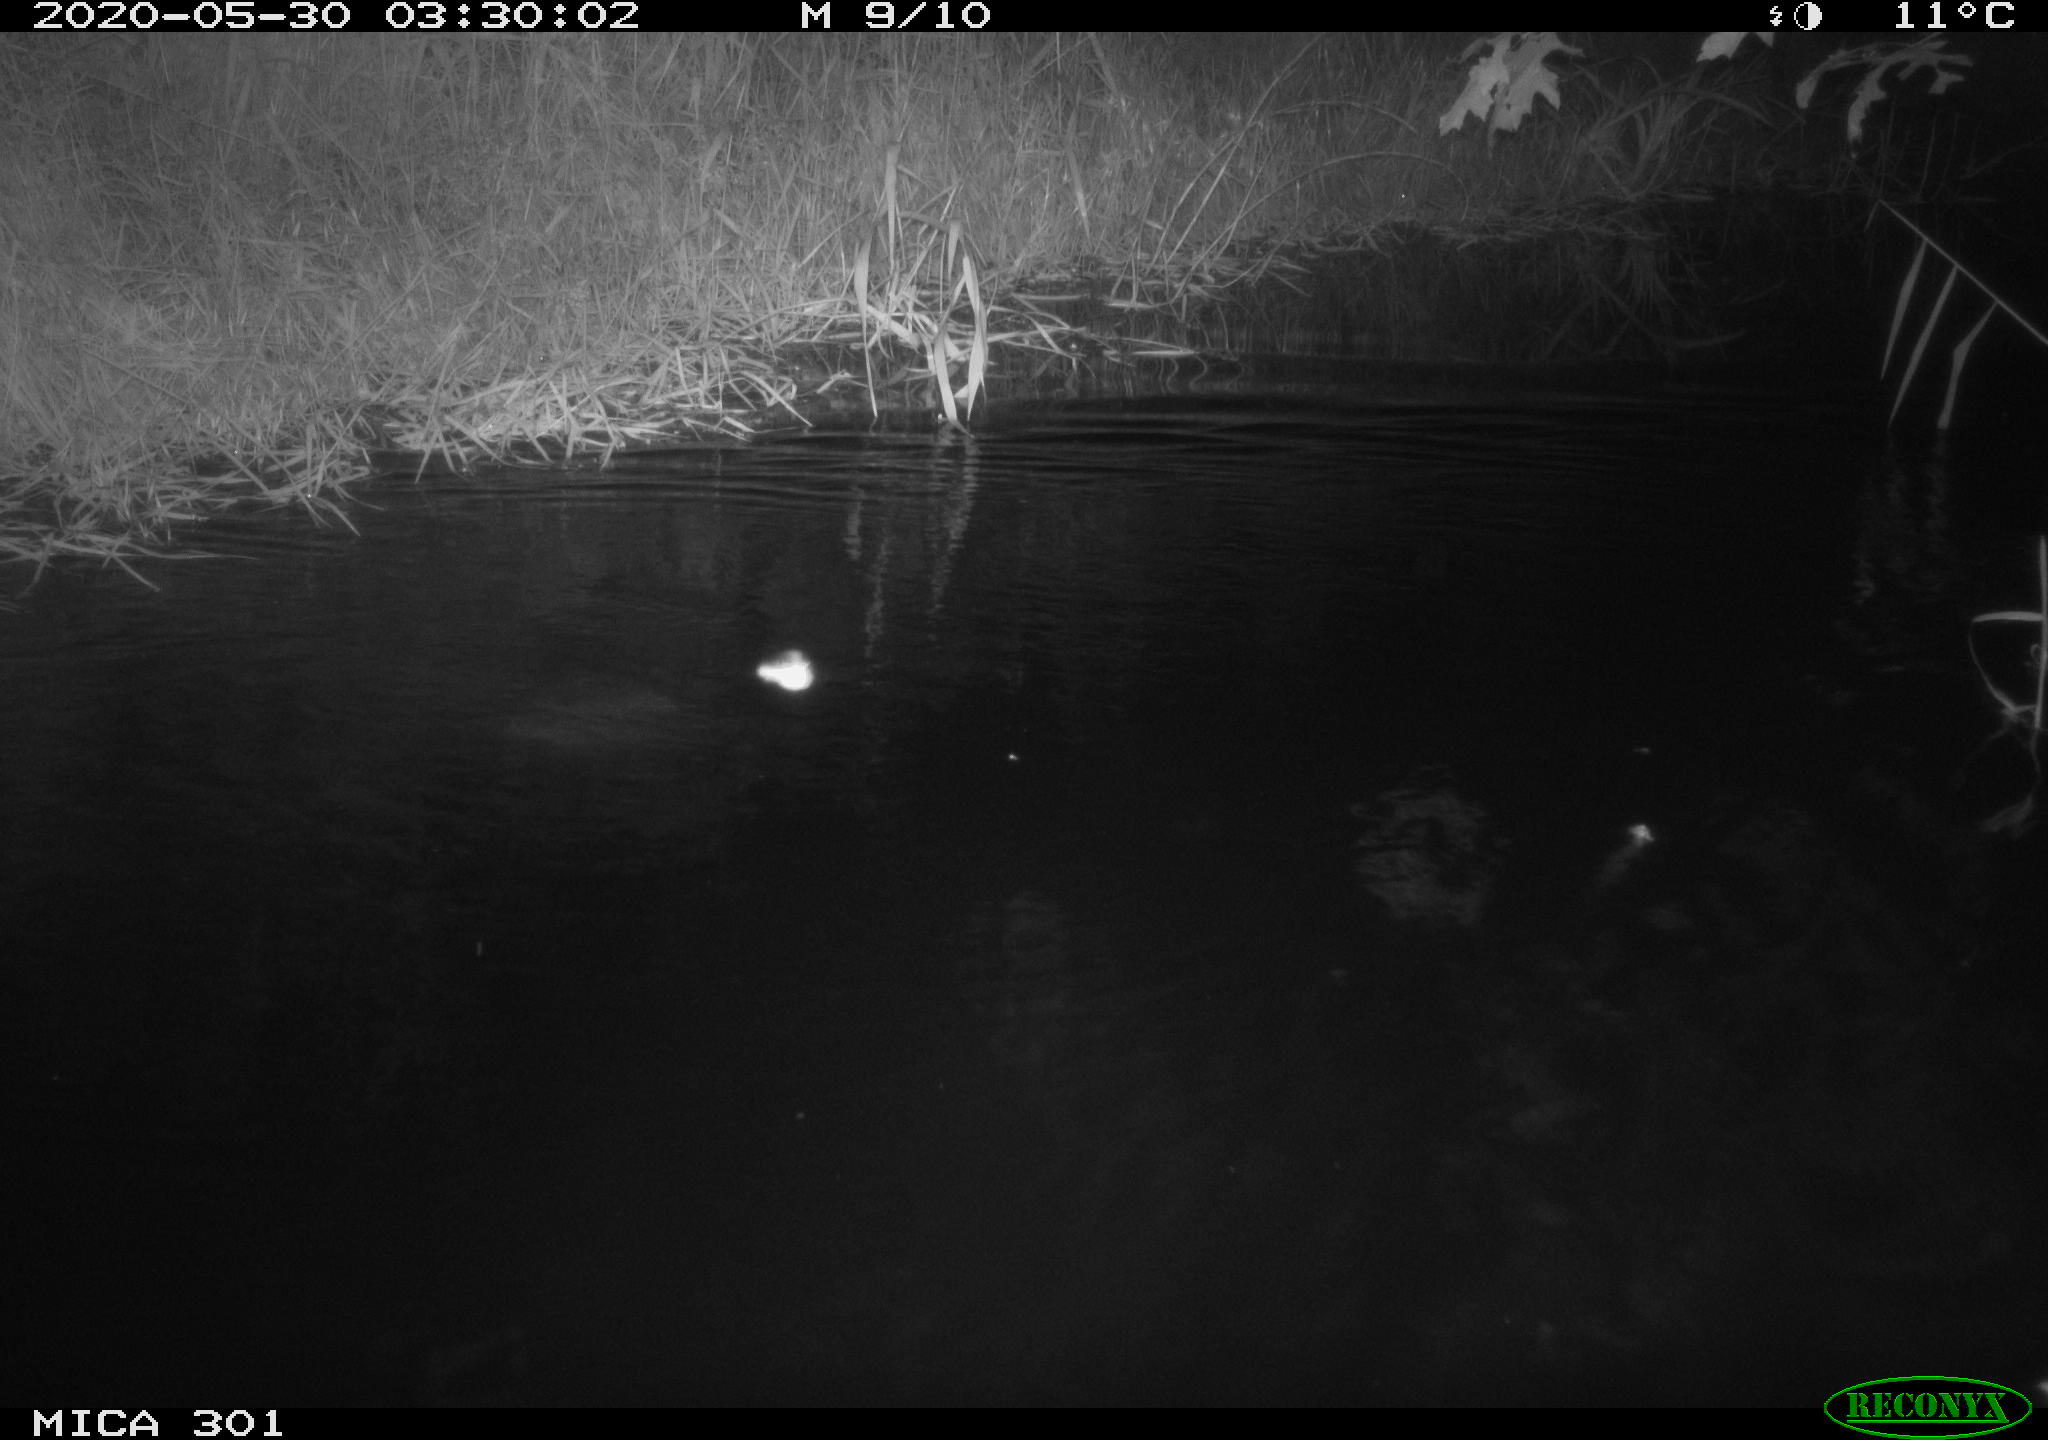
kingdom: Animalia
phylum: Chordata
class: Mammalia
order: Rodentia
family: Castoridae
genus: Castor
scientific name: Castor fiber
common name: Eurasian beaver
